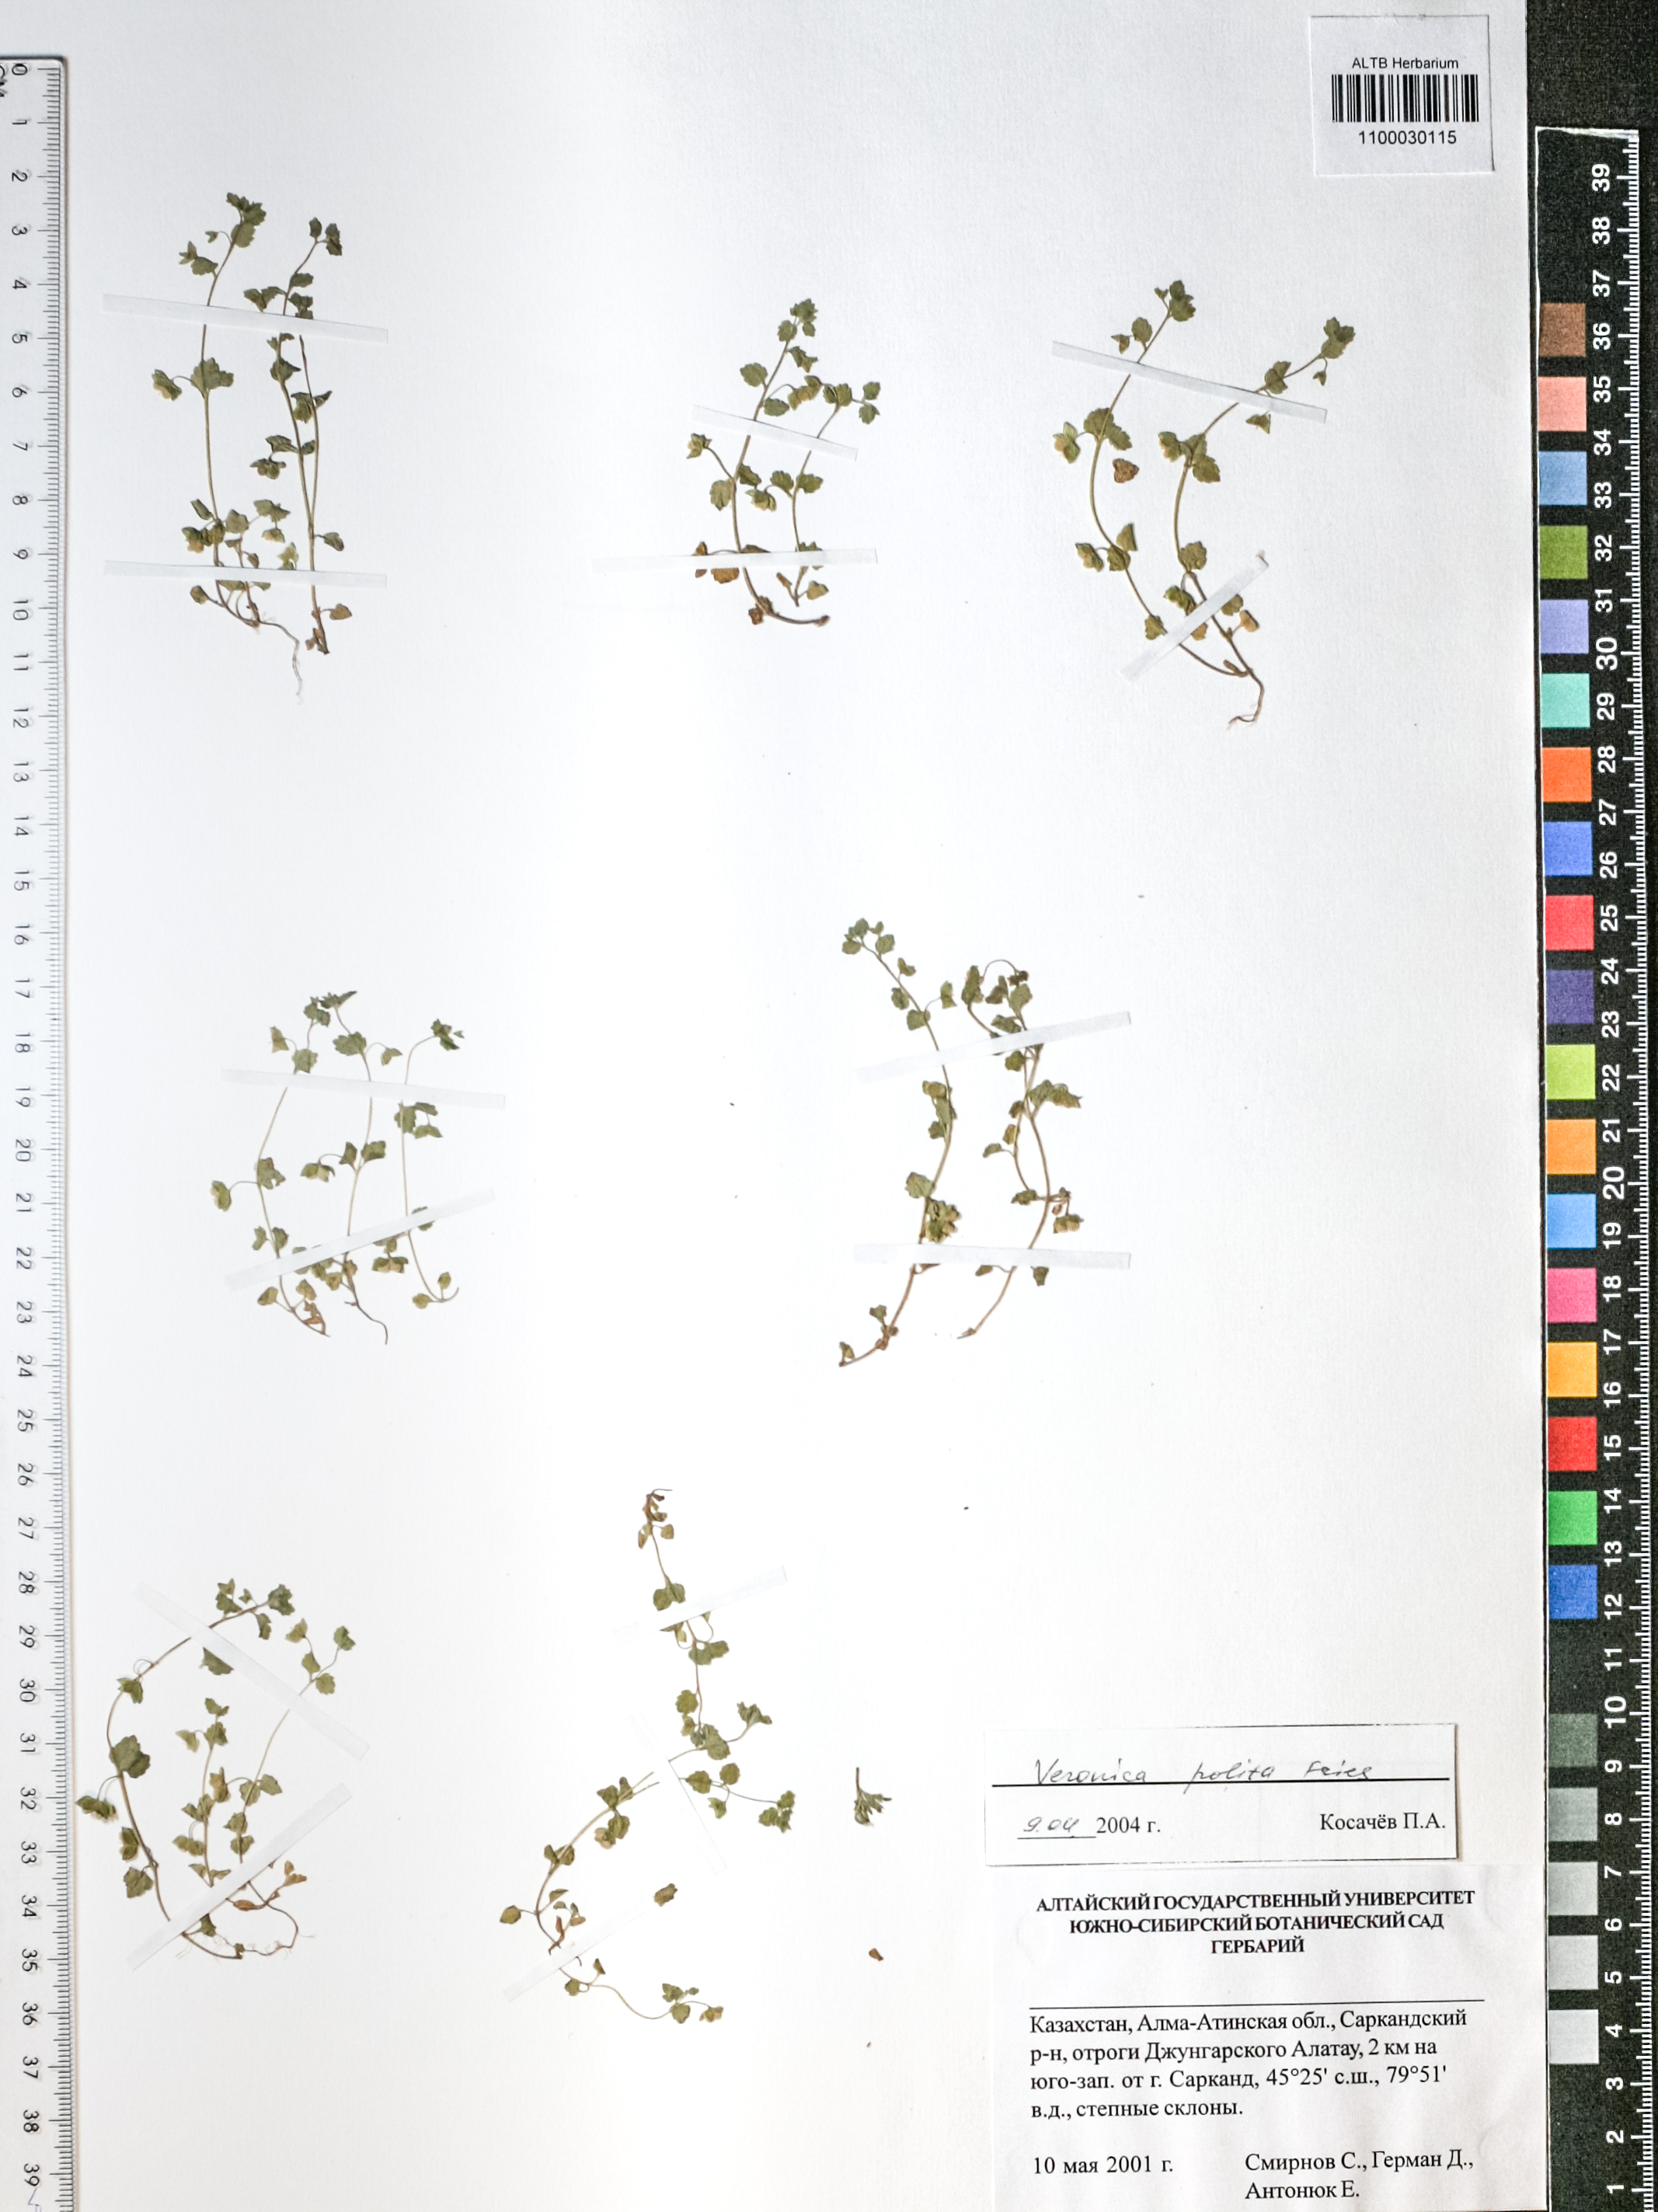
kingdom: Plantae
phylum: Tracheophyta
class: Magnoliopsida
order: Lamiales
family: Scrophulariaceae
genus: Scrophularia
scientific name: Scrophularia incisa
